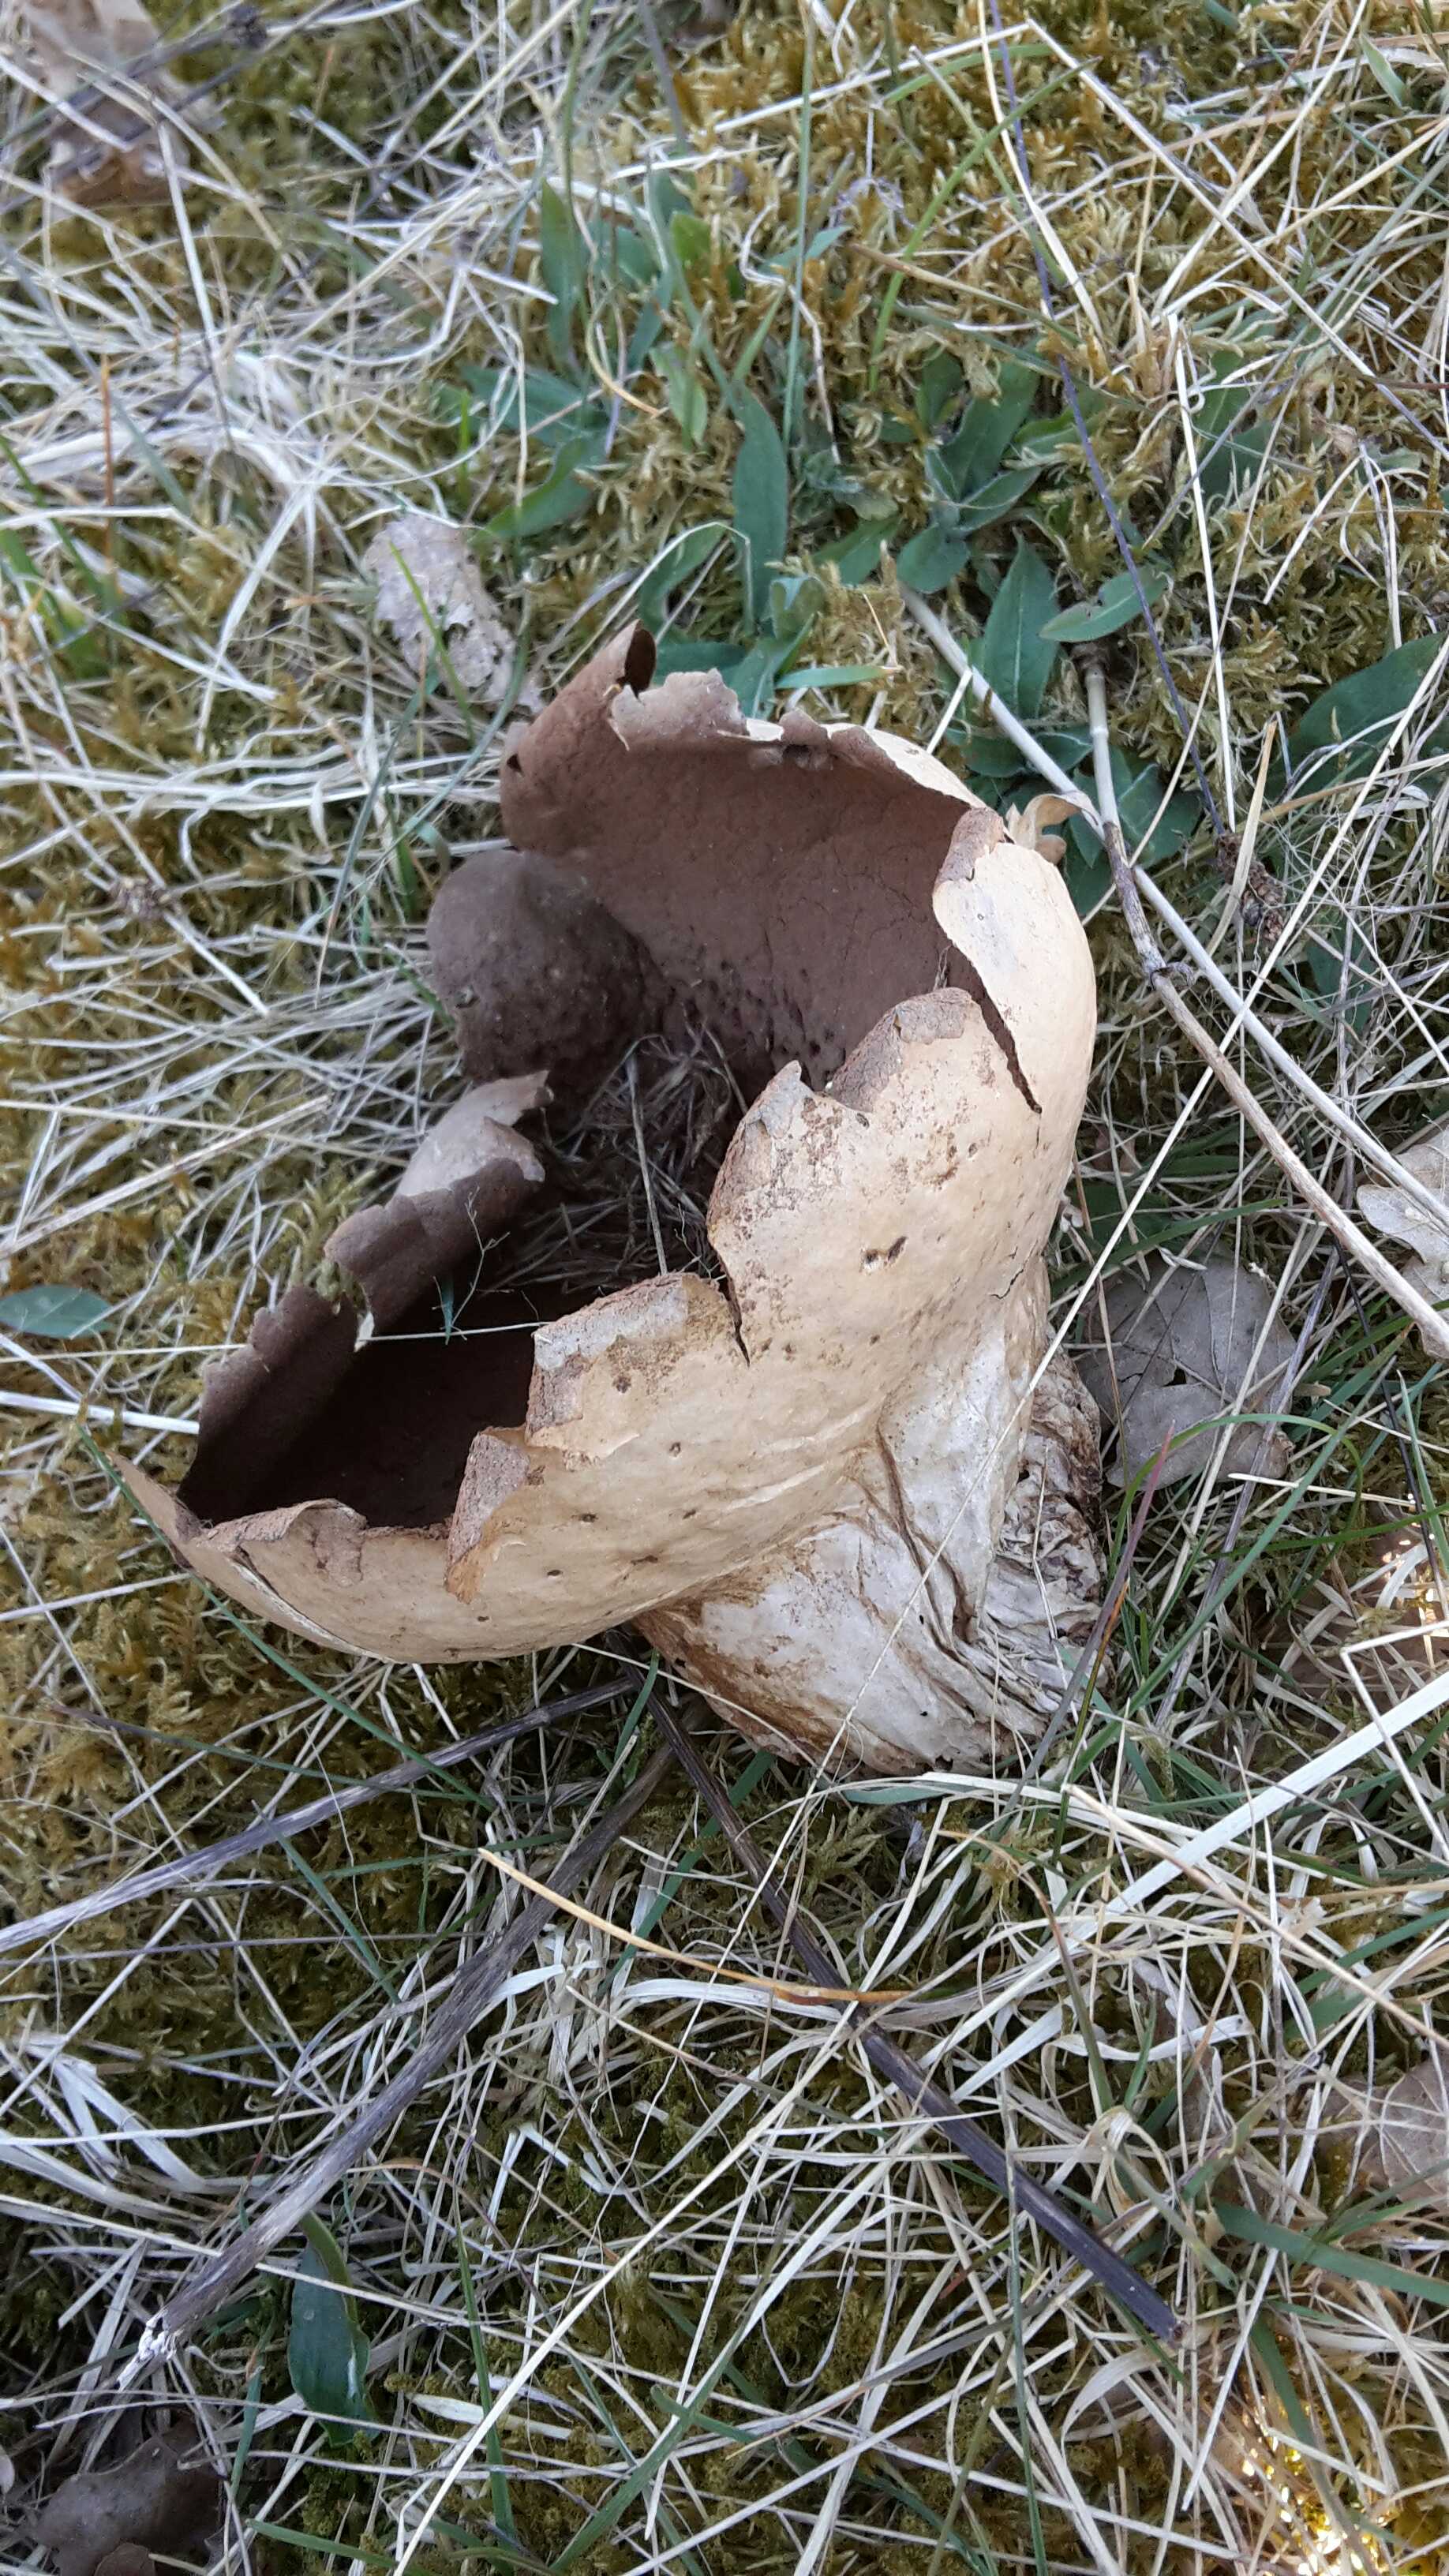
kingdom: Fungi
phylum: Basidiomycota
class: Agaricomycetes
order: Agaricales
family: Lycoperdaceae
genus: Bovistella
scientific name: Bovistella utriformis
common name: skællet støvbold
